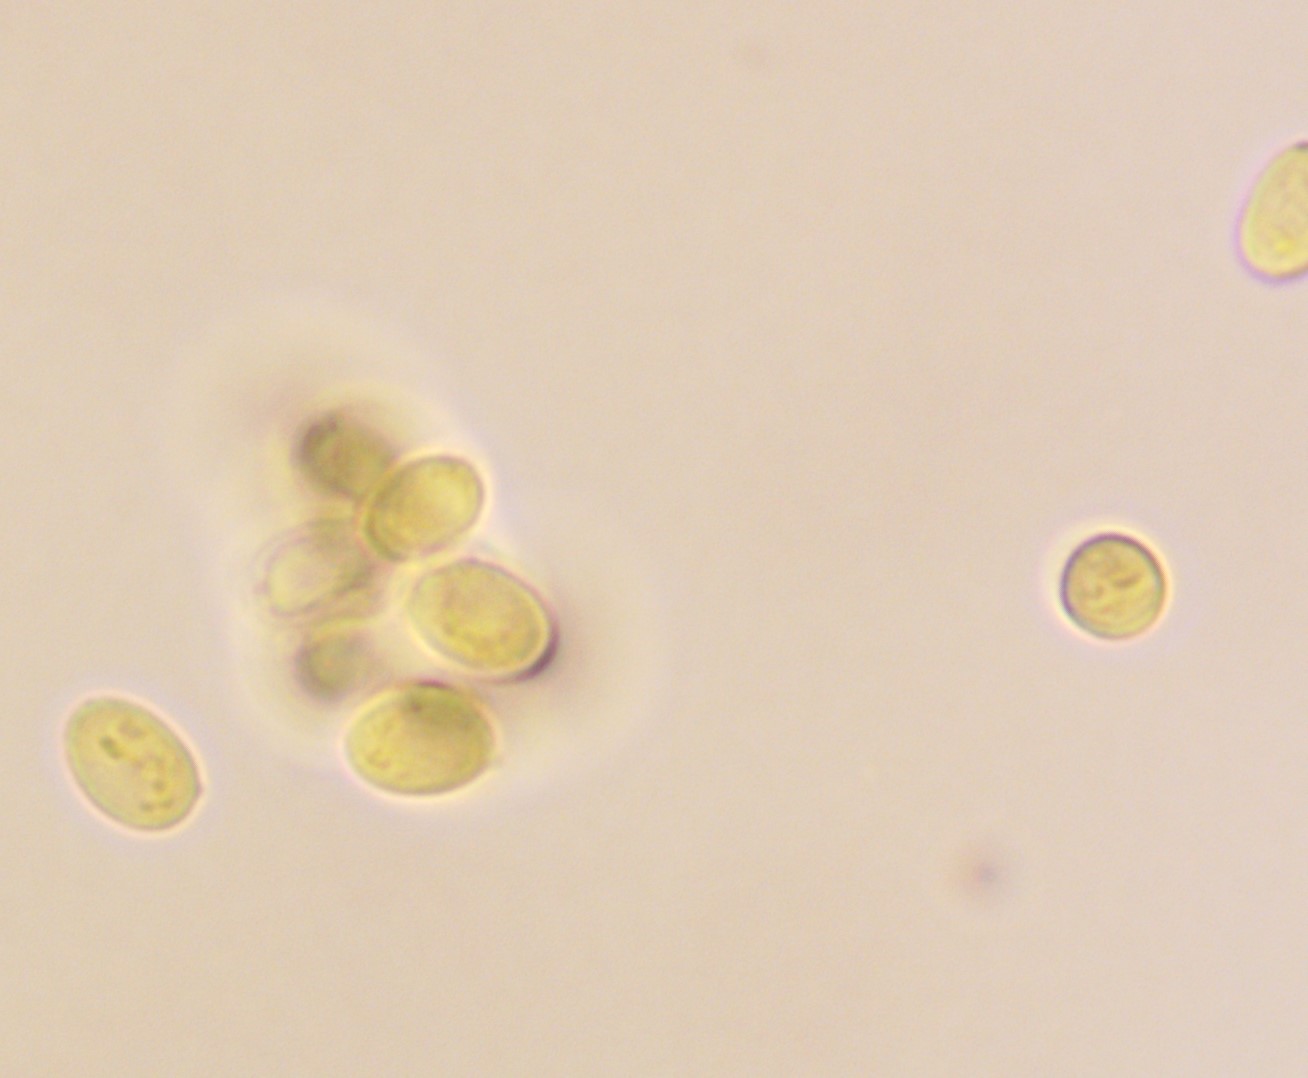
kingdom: Fungi
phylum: Basidiomycota
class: Agaricomycetes
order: Agaricales
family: Tricholomataceae
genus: Gamundia
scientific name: Gamundia xerophila
